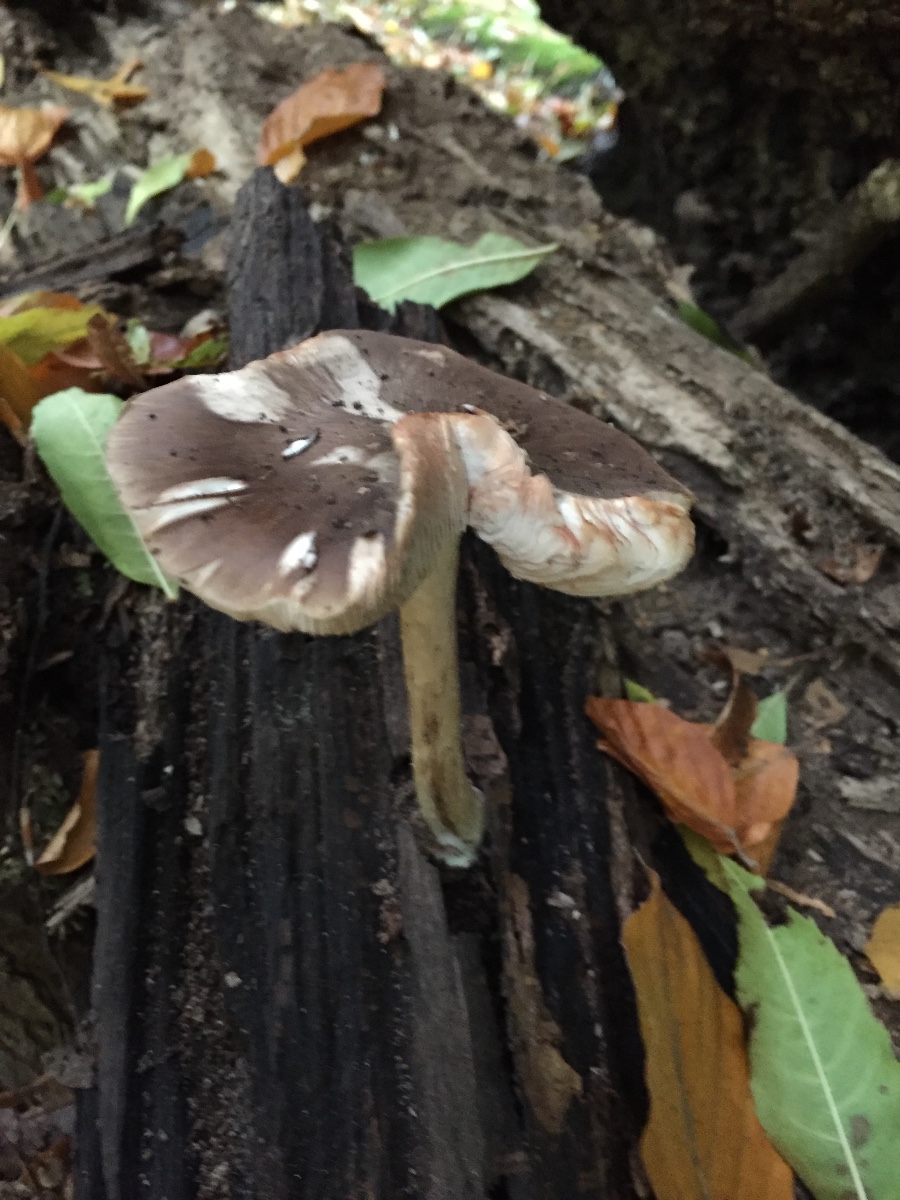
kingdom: Fungi
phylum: Basidiomycota
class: Agaricomycetes
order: Agaricales
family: Pluteaceae
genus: Pluteus
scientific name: Pluteus cervinus
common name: sodfarvet skærmhat
